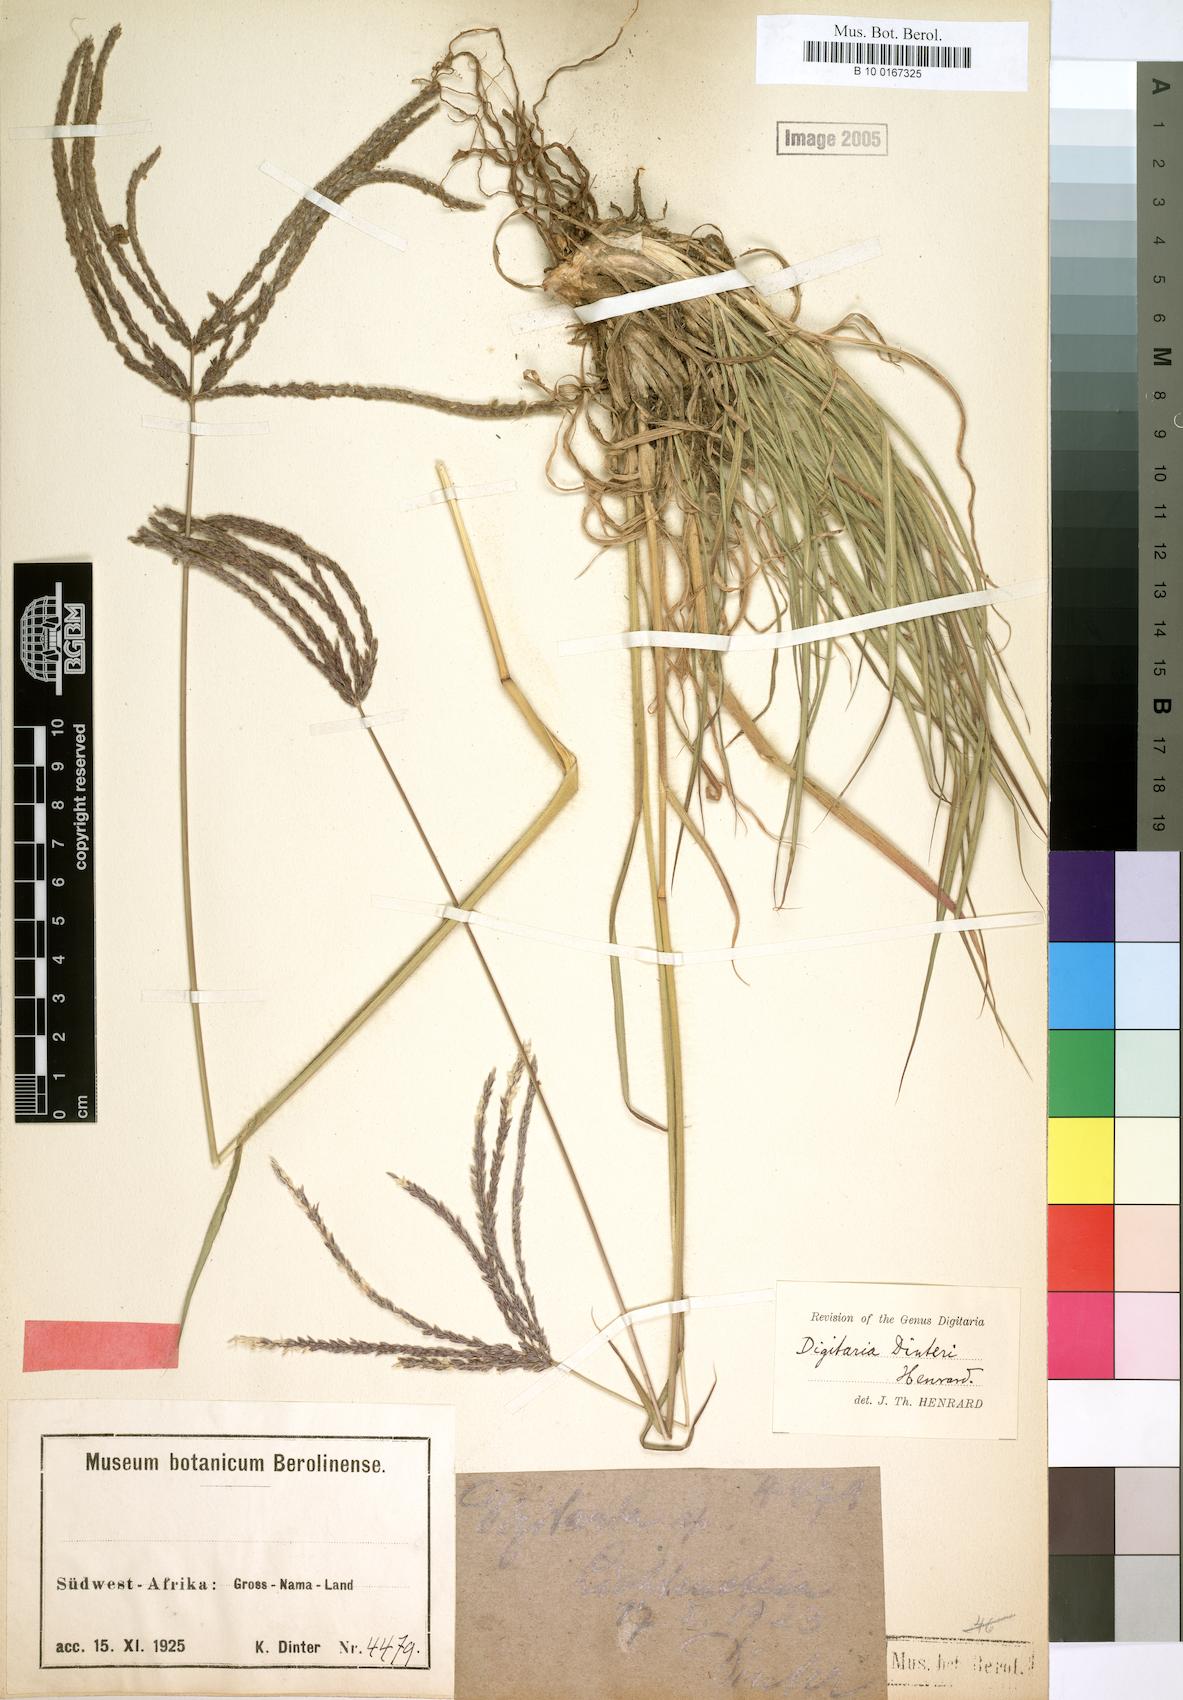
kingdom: Plantae
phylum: Tracheophyta
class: Liliopsida
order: Poales
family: Poaceae
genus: Digitaria
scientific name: Digitaria eriantha
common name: Digitgrass
